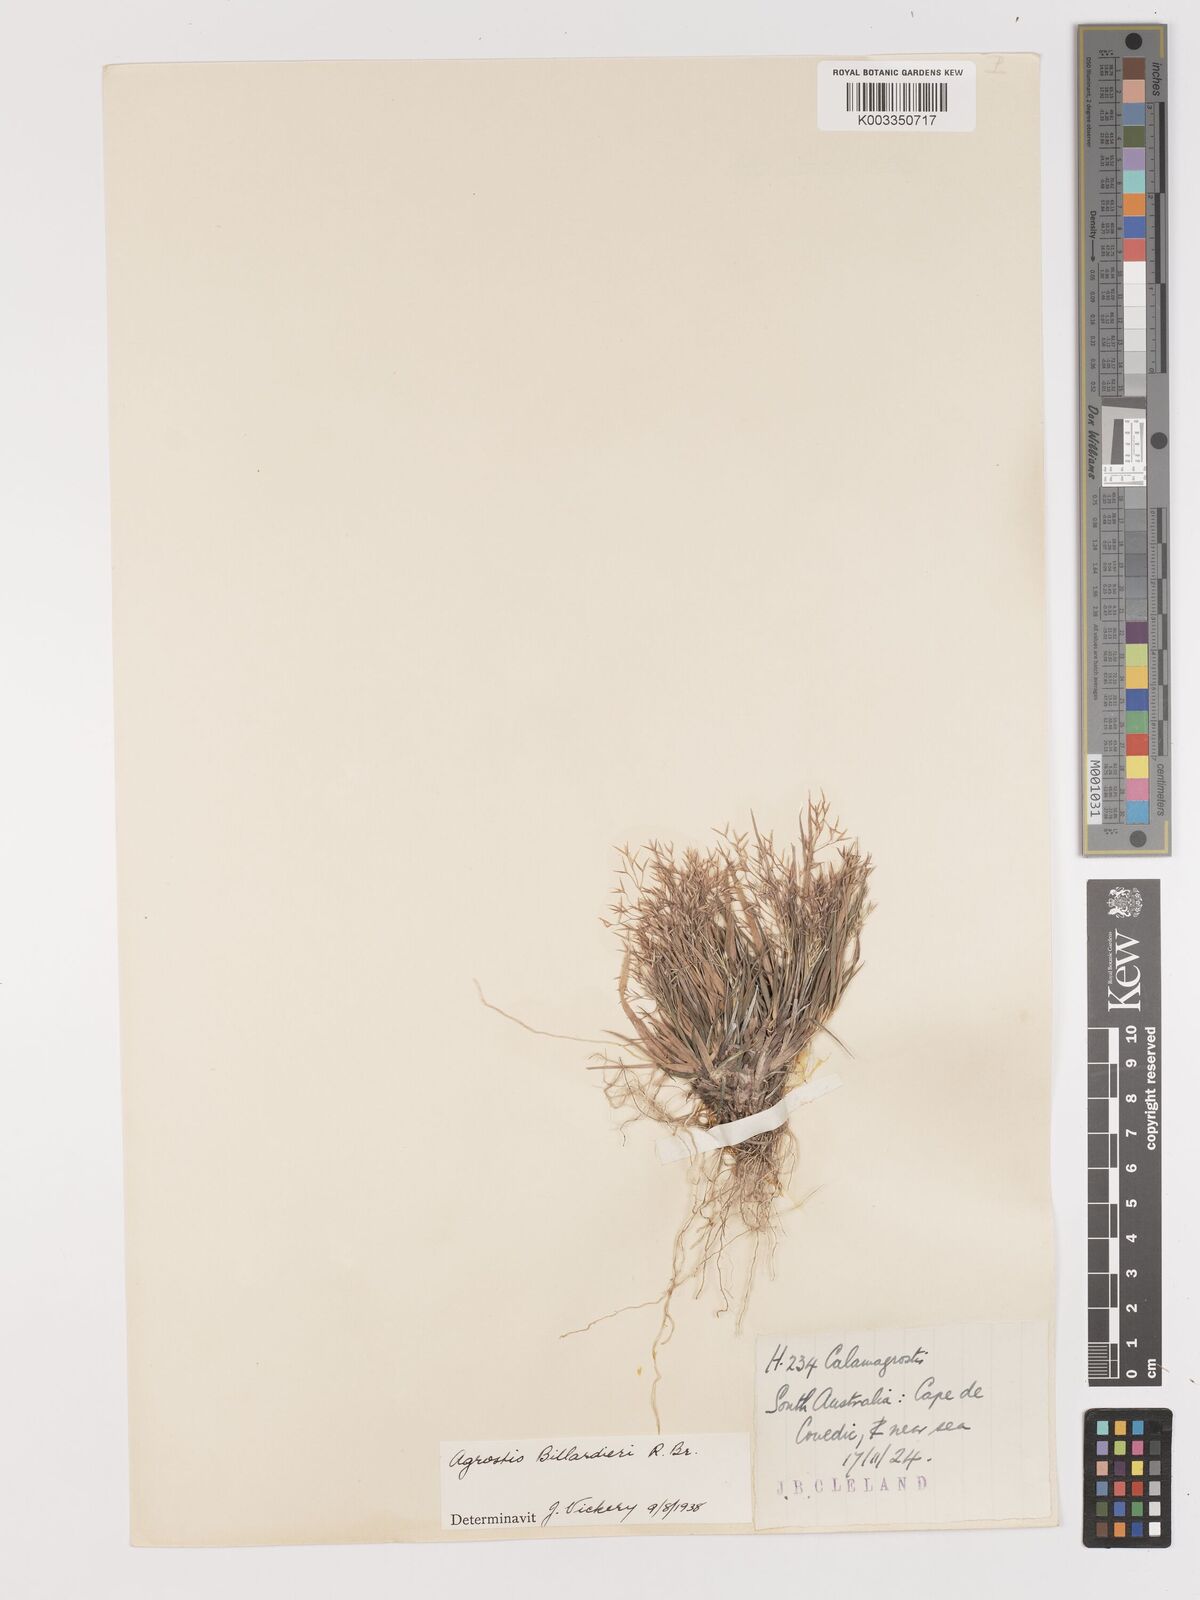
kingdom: Plantae
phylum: Tracheophyta
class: Liliopsida
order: Poales
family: Poaceae
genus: Lachnagrostis
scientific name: Lachnagrostis billardierei
